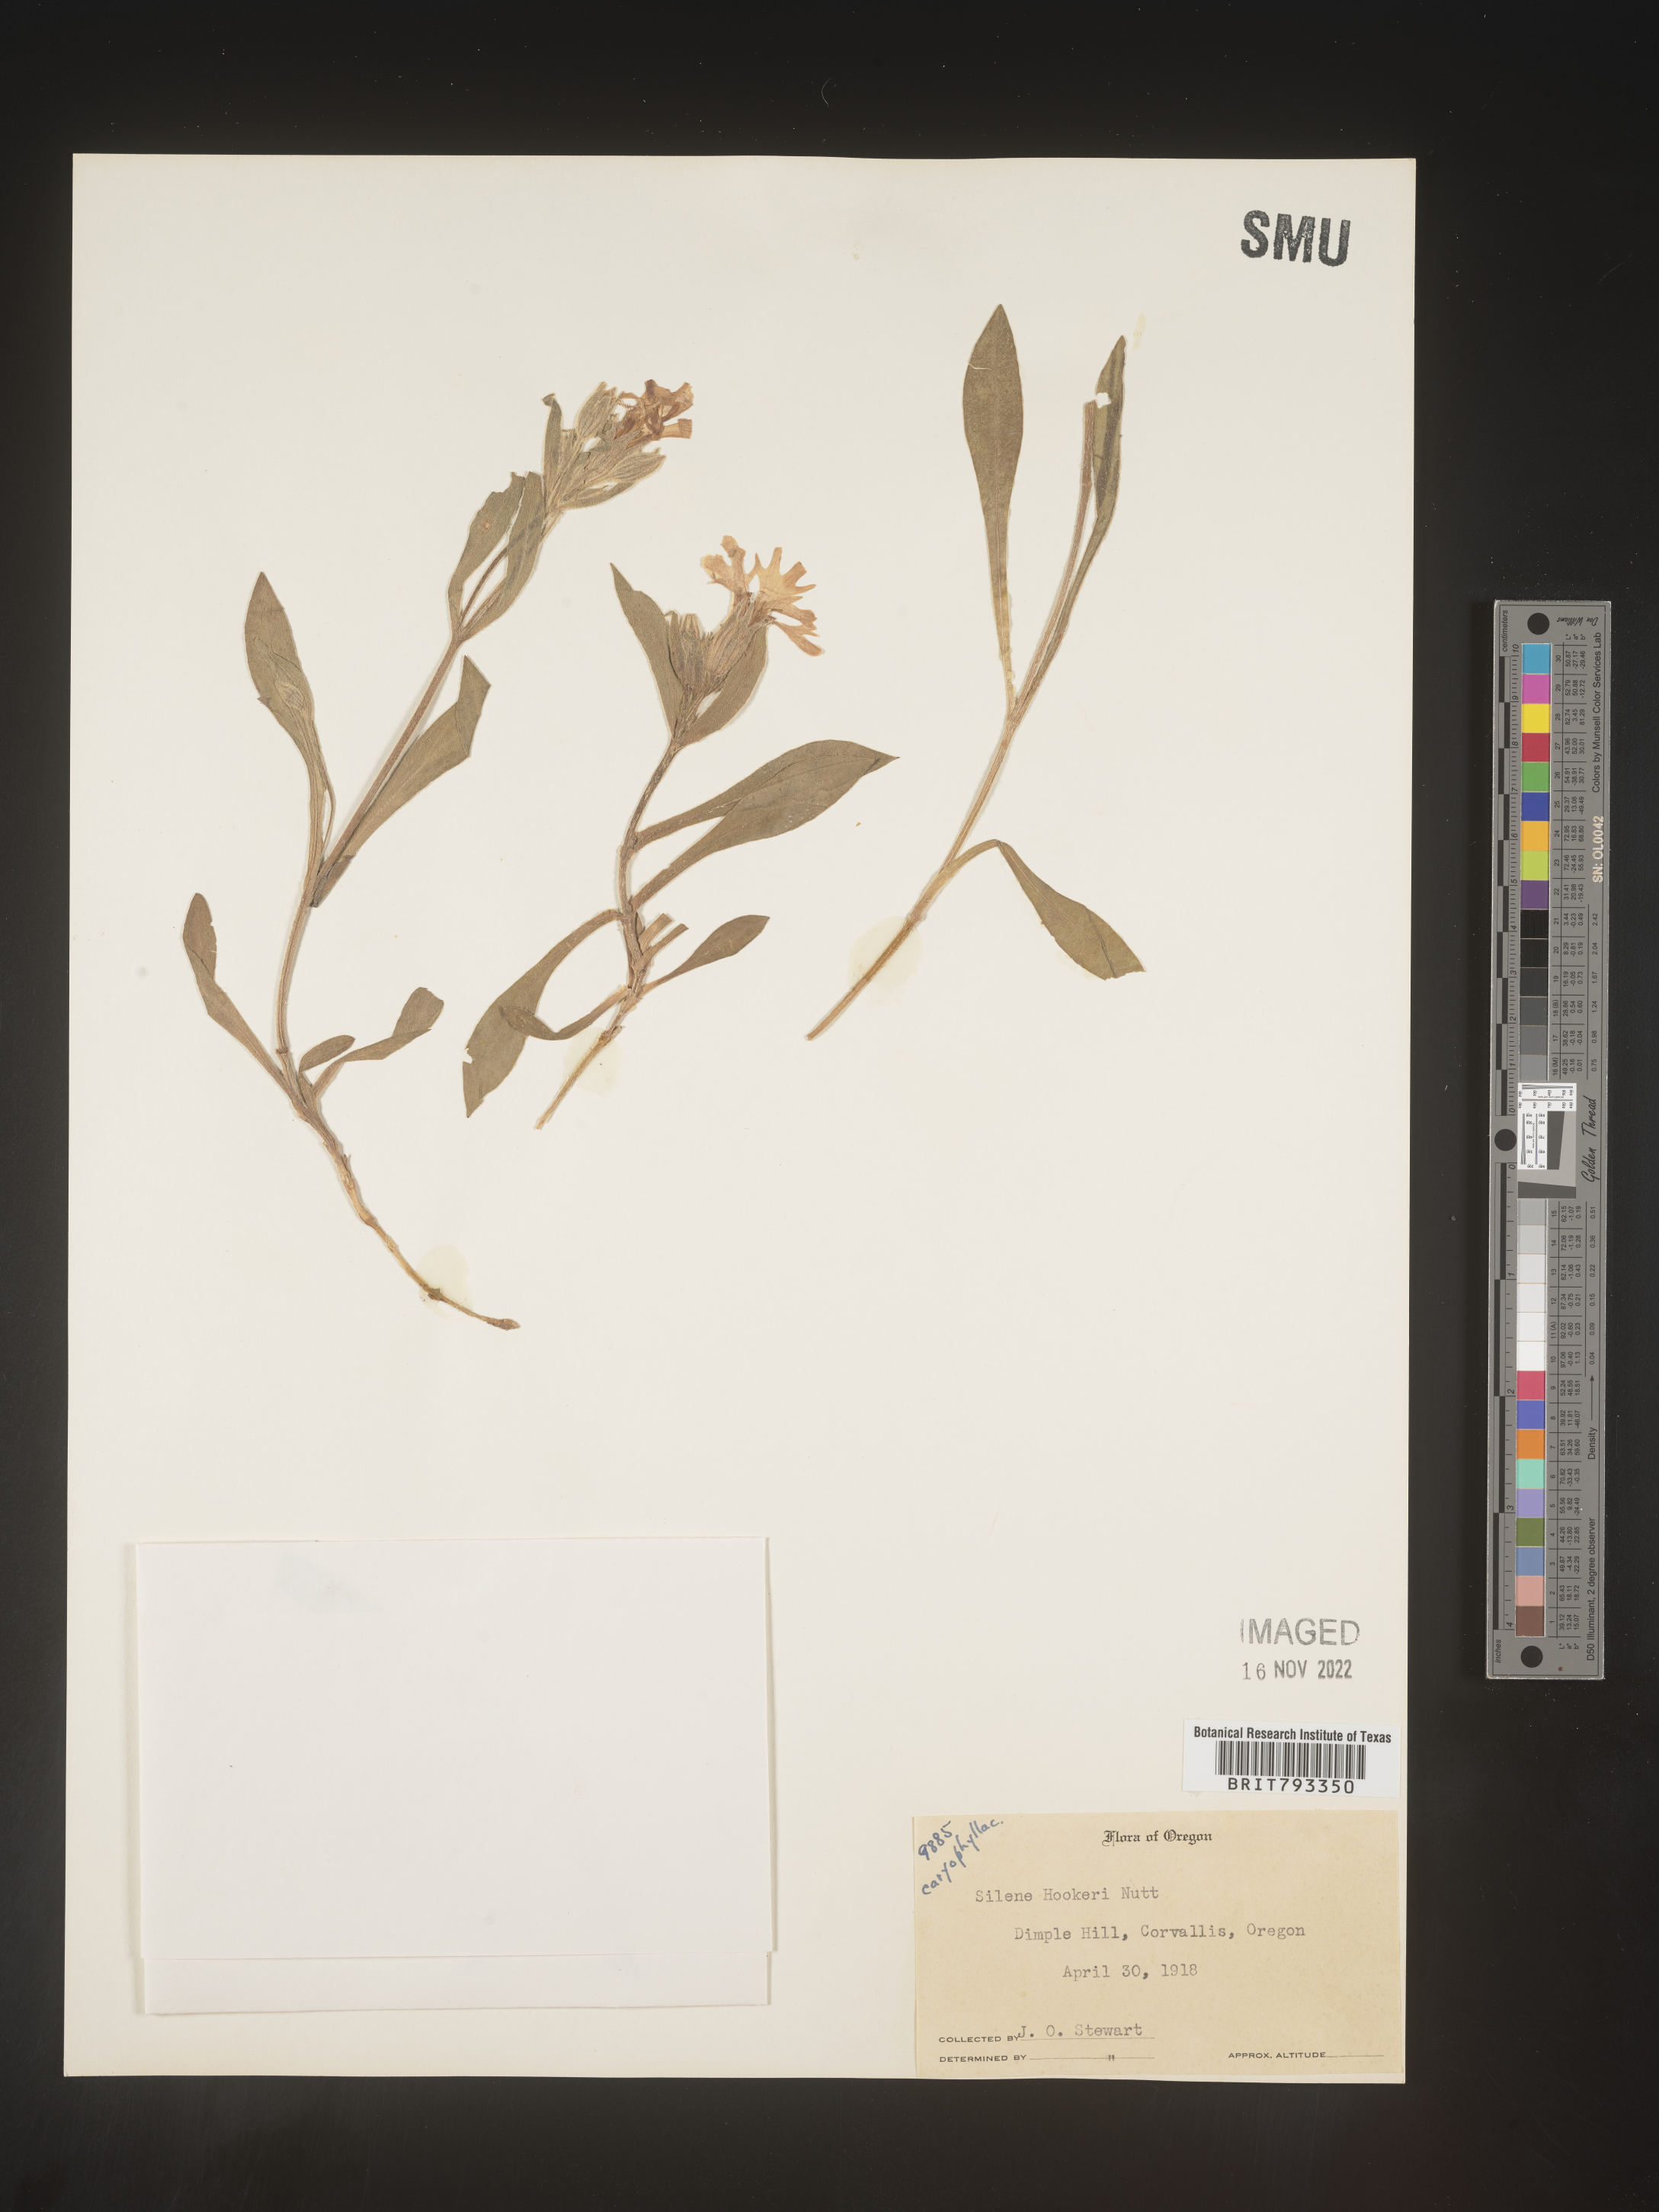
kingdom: Plantae
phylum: Tracheophyta
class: Magnoliopsida
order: Caryophyllales
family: Caryophyllaceae
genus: Silene
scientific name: Silene hookeri
